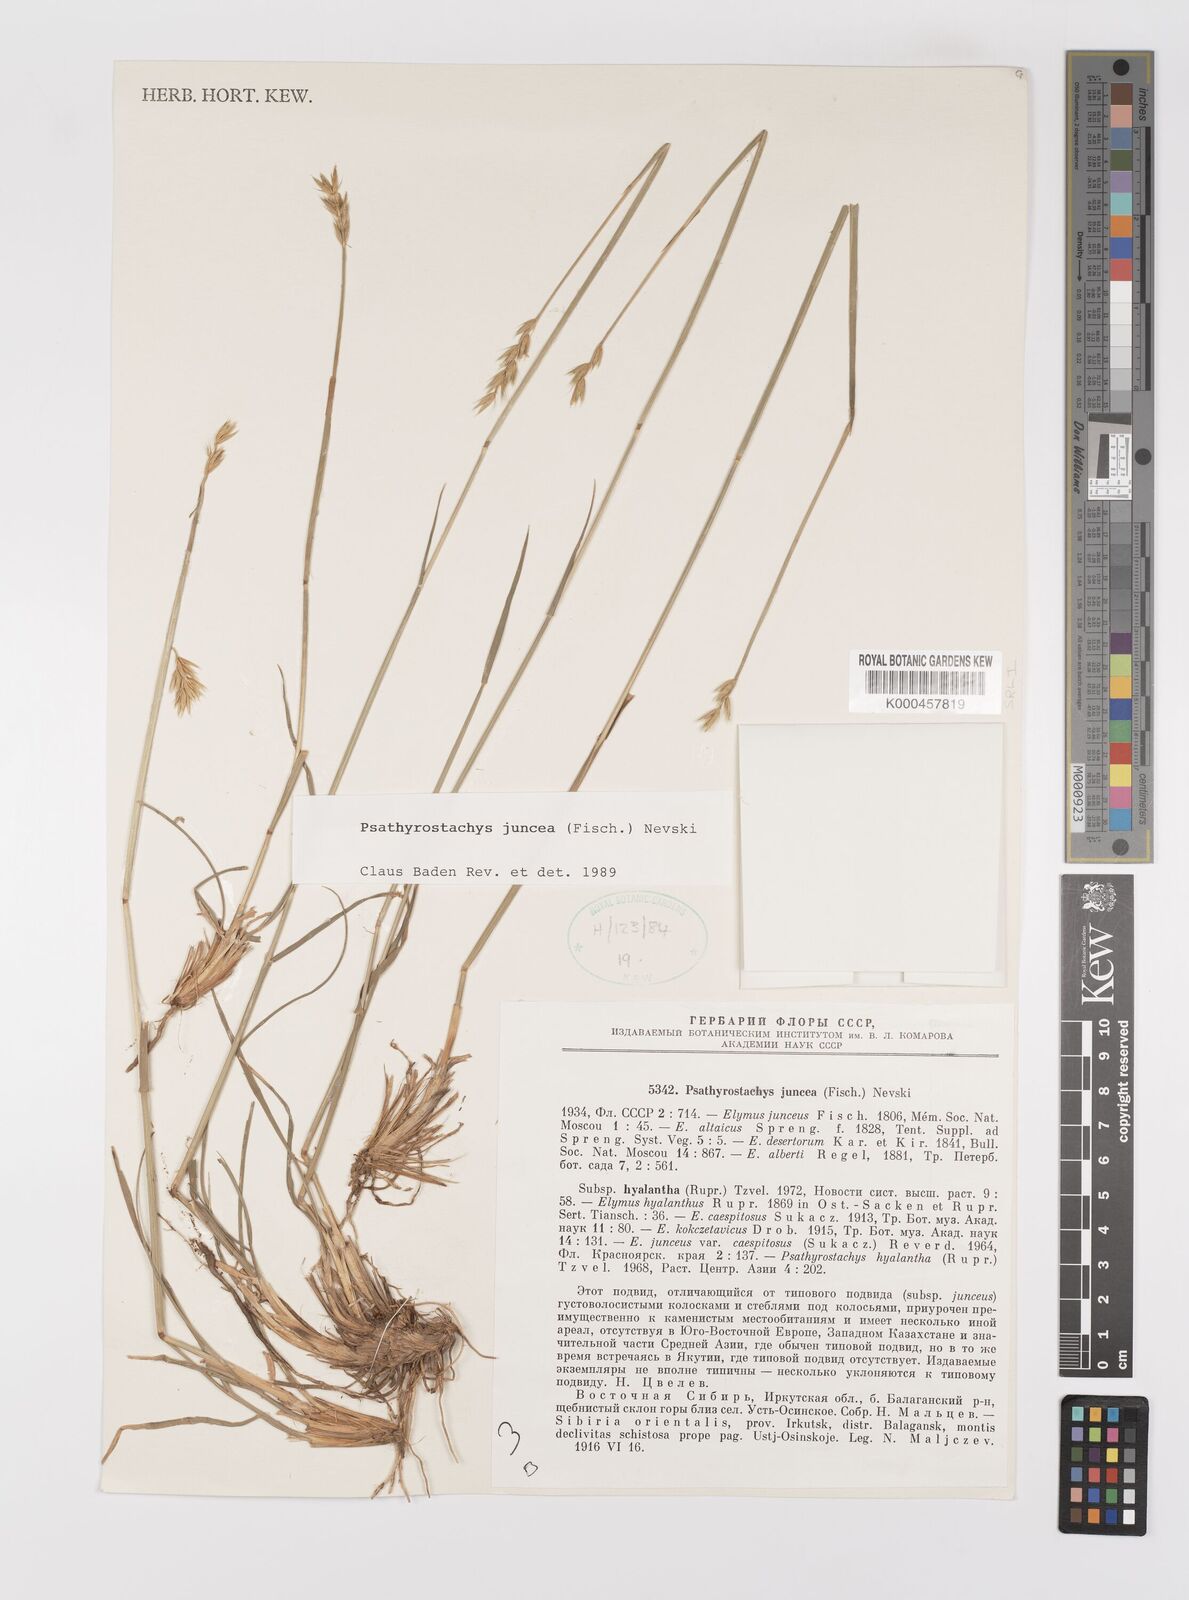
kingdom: Plantae
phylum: Tracheophyta
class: Liliopsida
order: Poales
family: Poaceae
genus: Psathyrostachys
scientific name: Psathyrostachys juncea
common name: Russian wildrye
